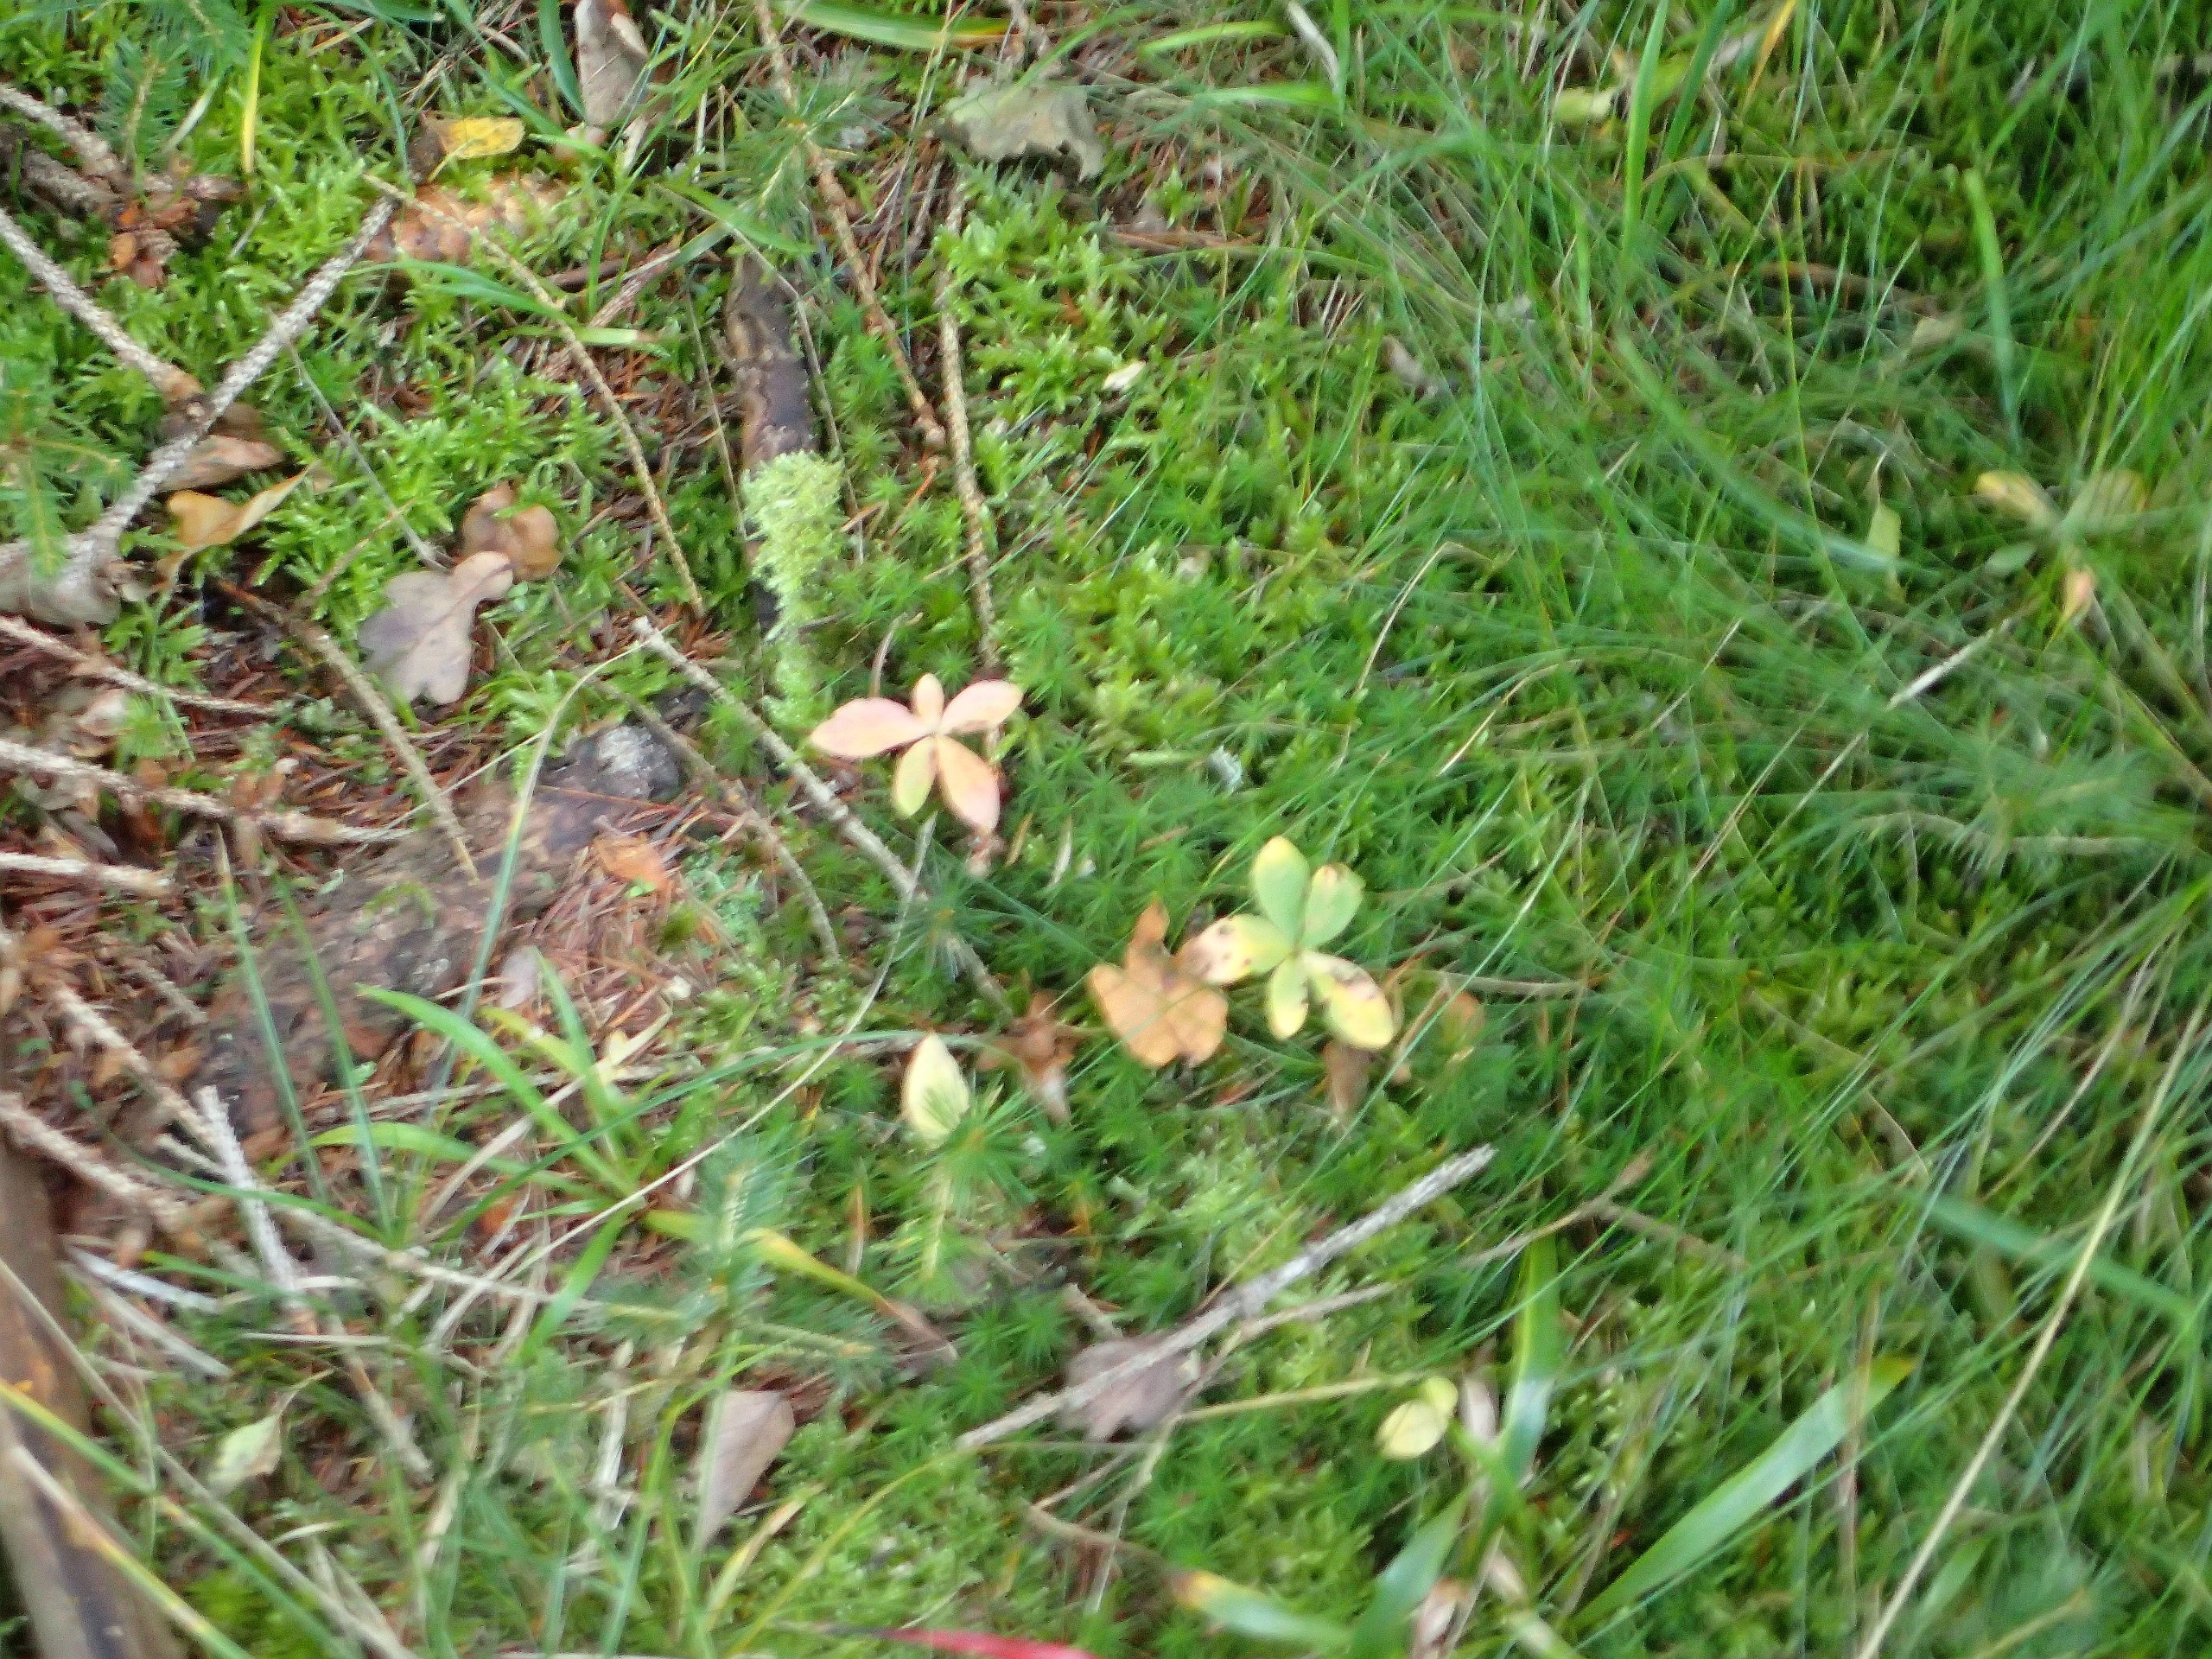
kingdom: Plantae
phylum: Tracheophyta
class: Magnoliopsida
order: Ericales
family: Primulaceae
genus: Lysimachia
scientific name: Lysimachia europaea
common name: Skovstjerne
